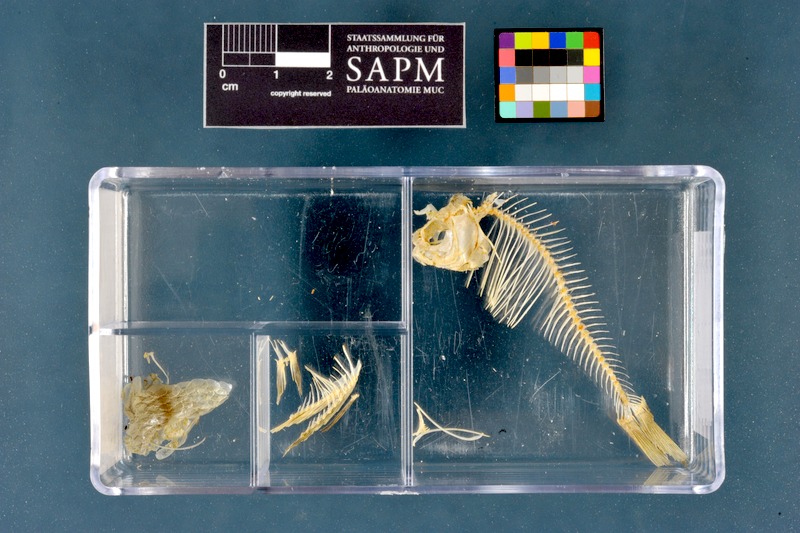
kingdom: Animalia
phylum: Chordata
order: Cypriniformes
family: Cyprinidae
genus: Rhodeus
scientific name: Rhodeus amarus
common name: Bitterling
